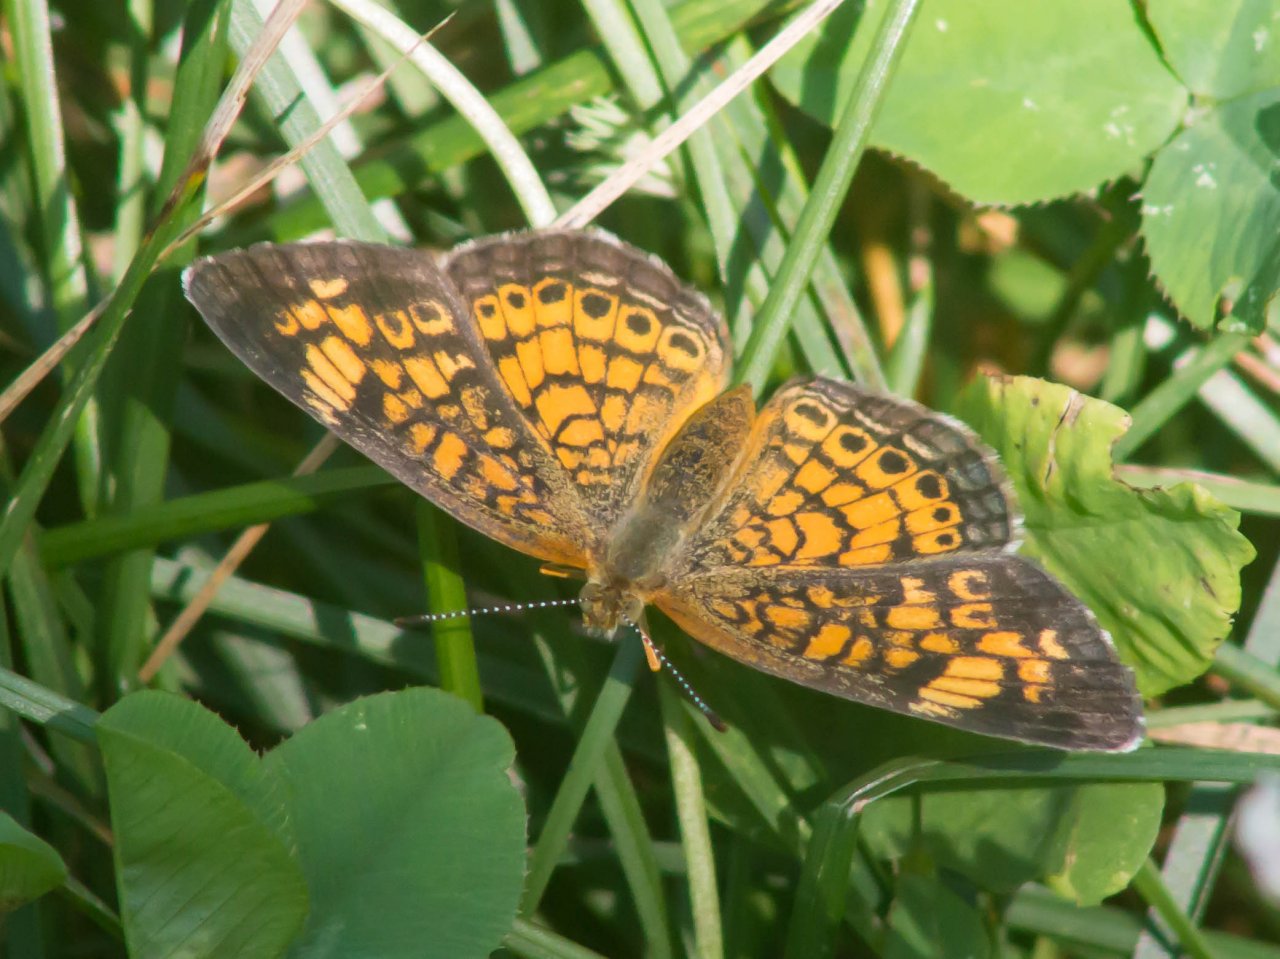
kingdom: Animalia
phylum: Arthropoda
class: Insecta
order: Lepidoptera
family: Nymphalidae
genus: Phyciodes
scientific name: Phyciodes tharos
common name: Pearl Crescent
